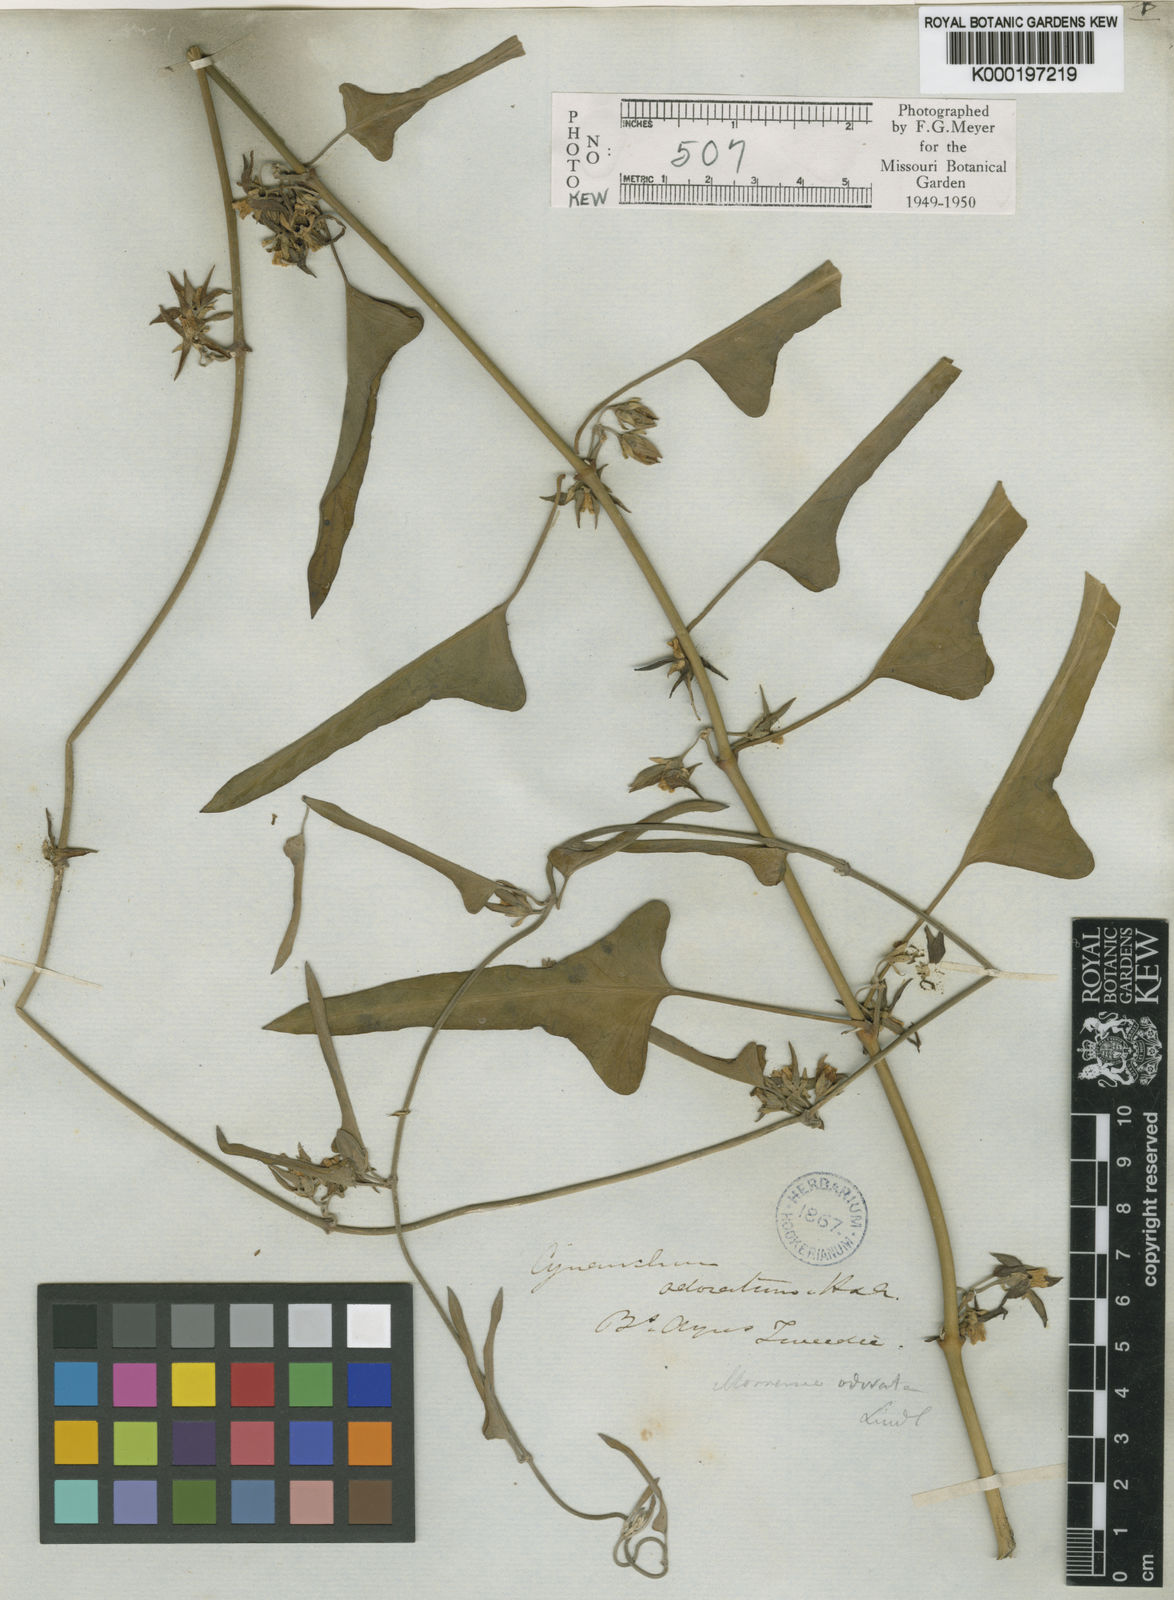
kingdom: Plantae
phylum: Tracheophyta
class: Magnoliopsida
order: Gentianales
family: Apocynaceae
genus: Araujia
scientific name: Araujia odorata
